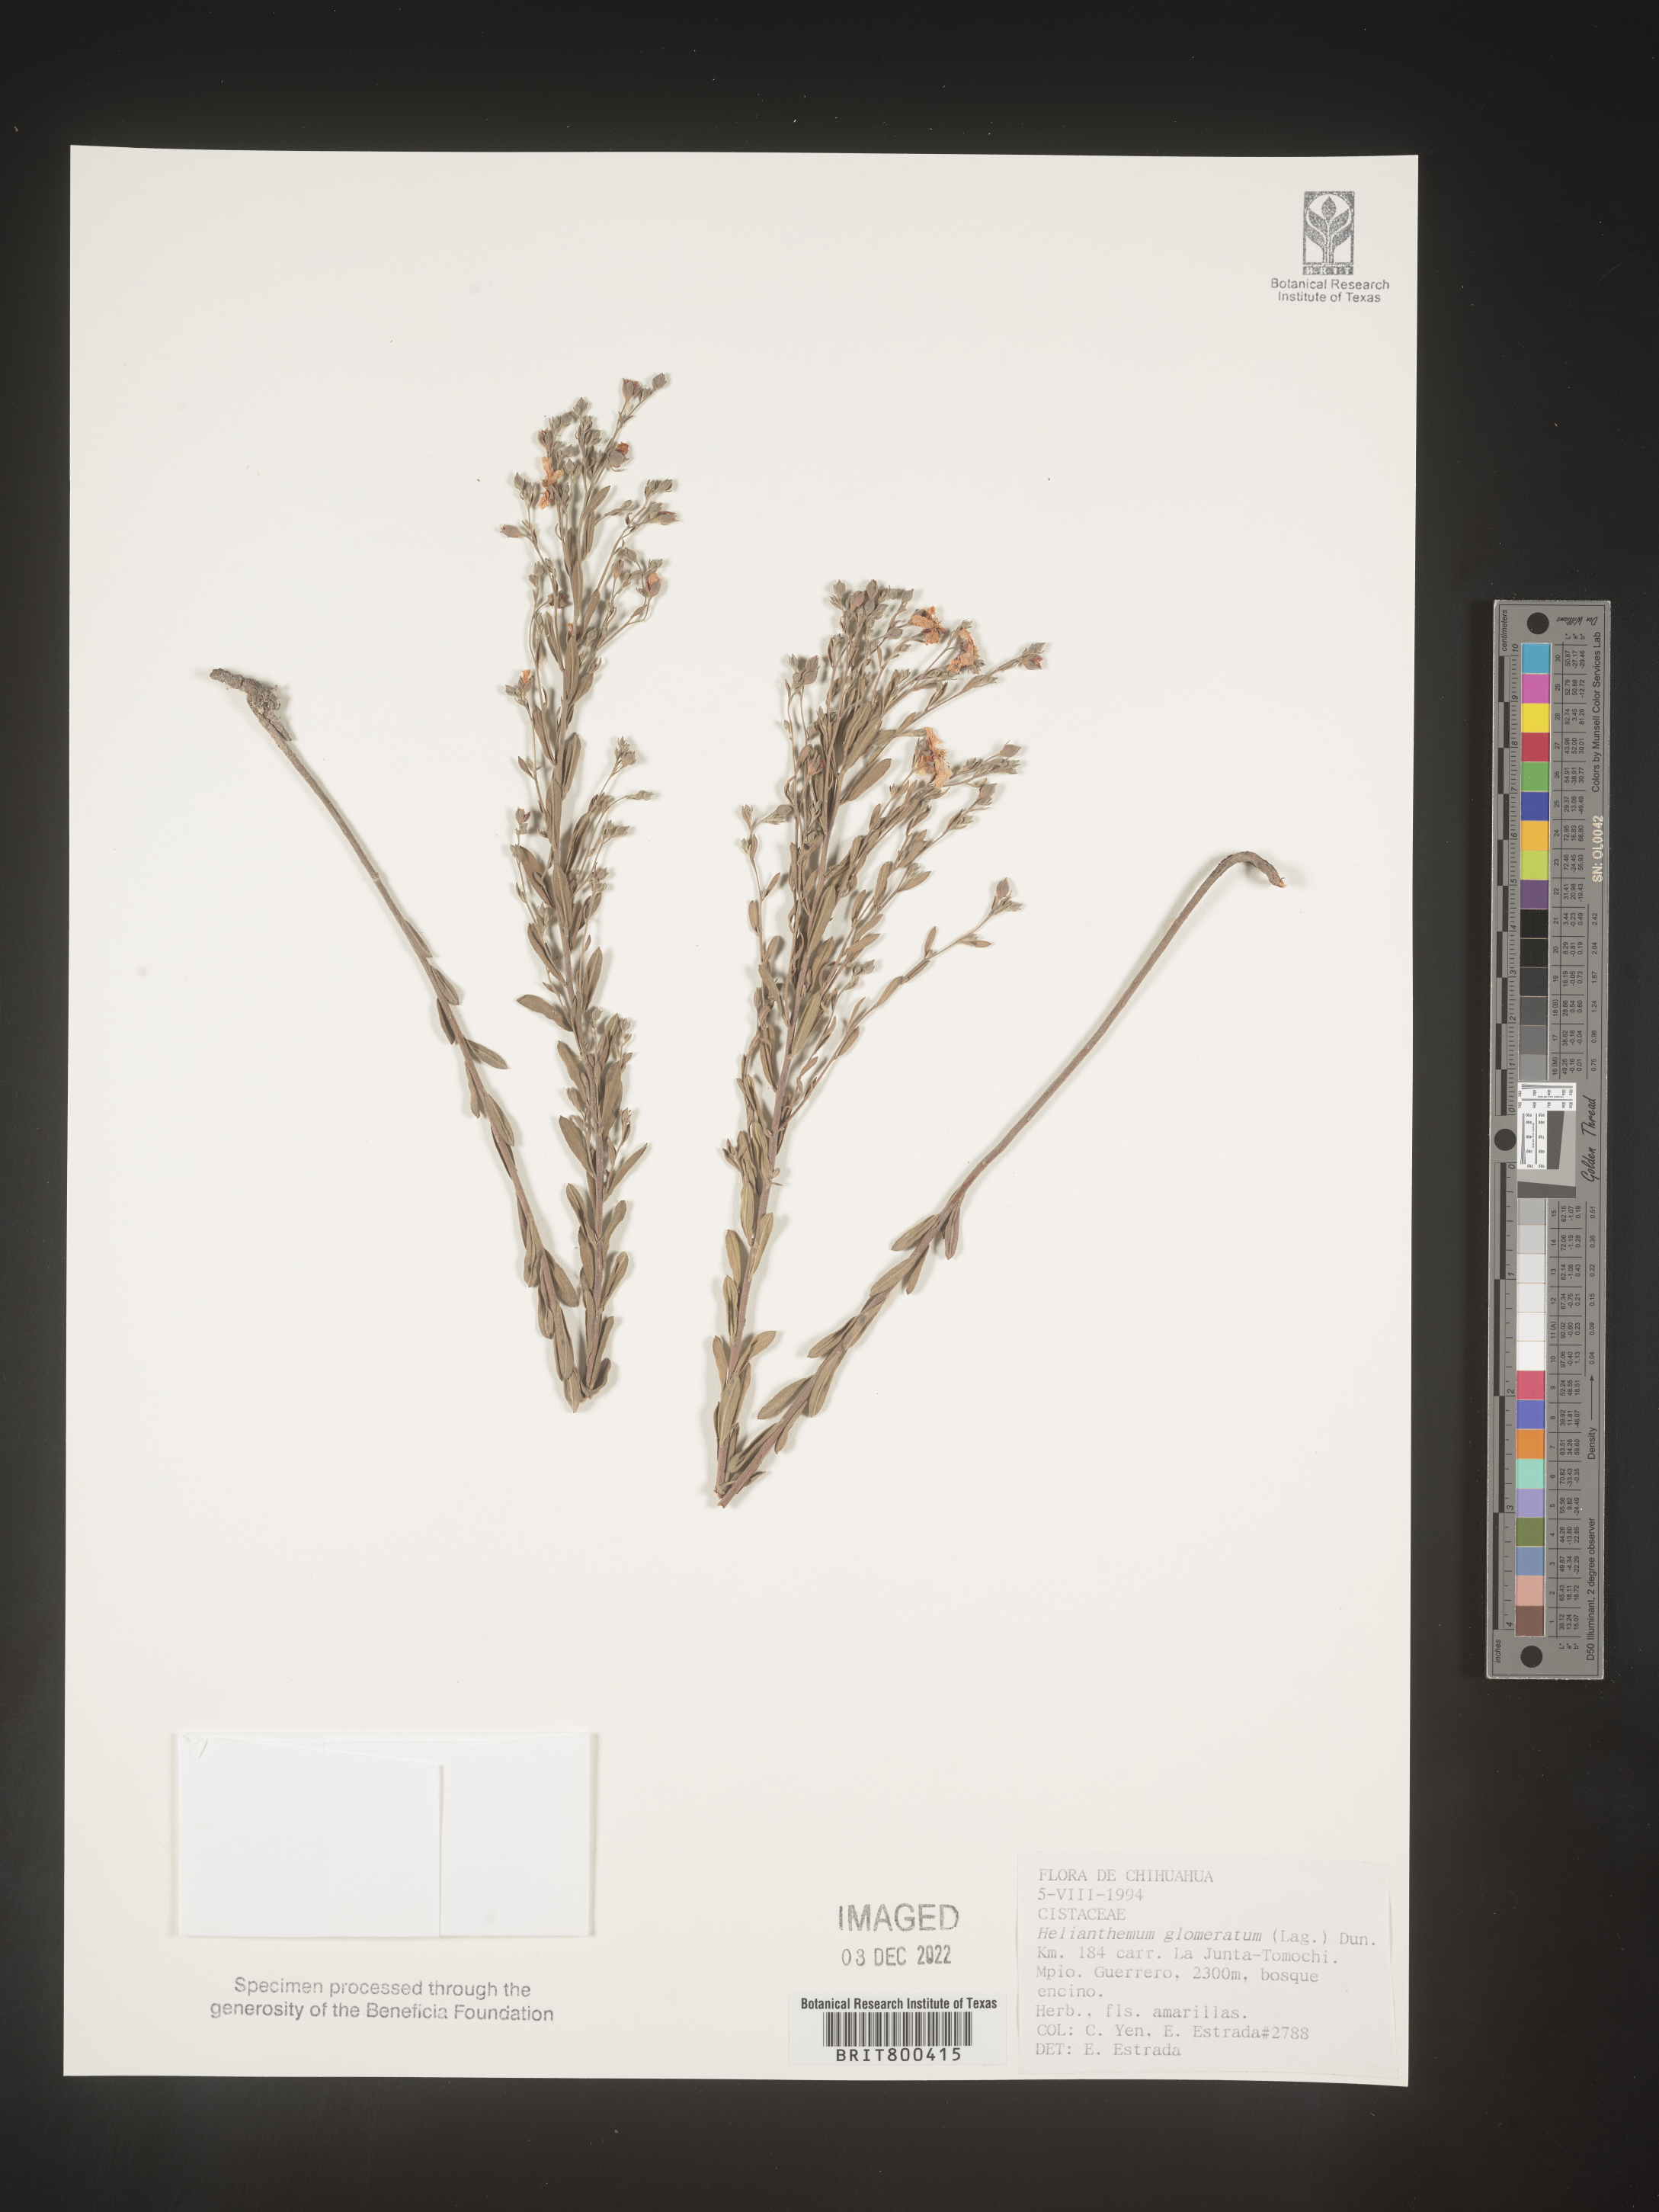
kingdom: Plantae
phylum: Tracheophyta
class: Magnoliopsida
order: Malvales
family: Cistaceae
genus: Helianthemum
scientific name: Helianthemum
